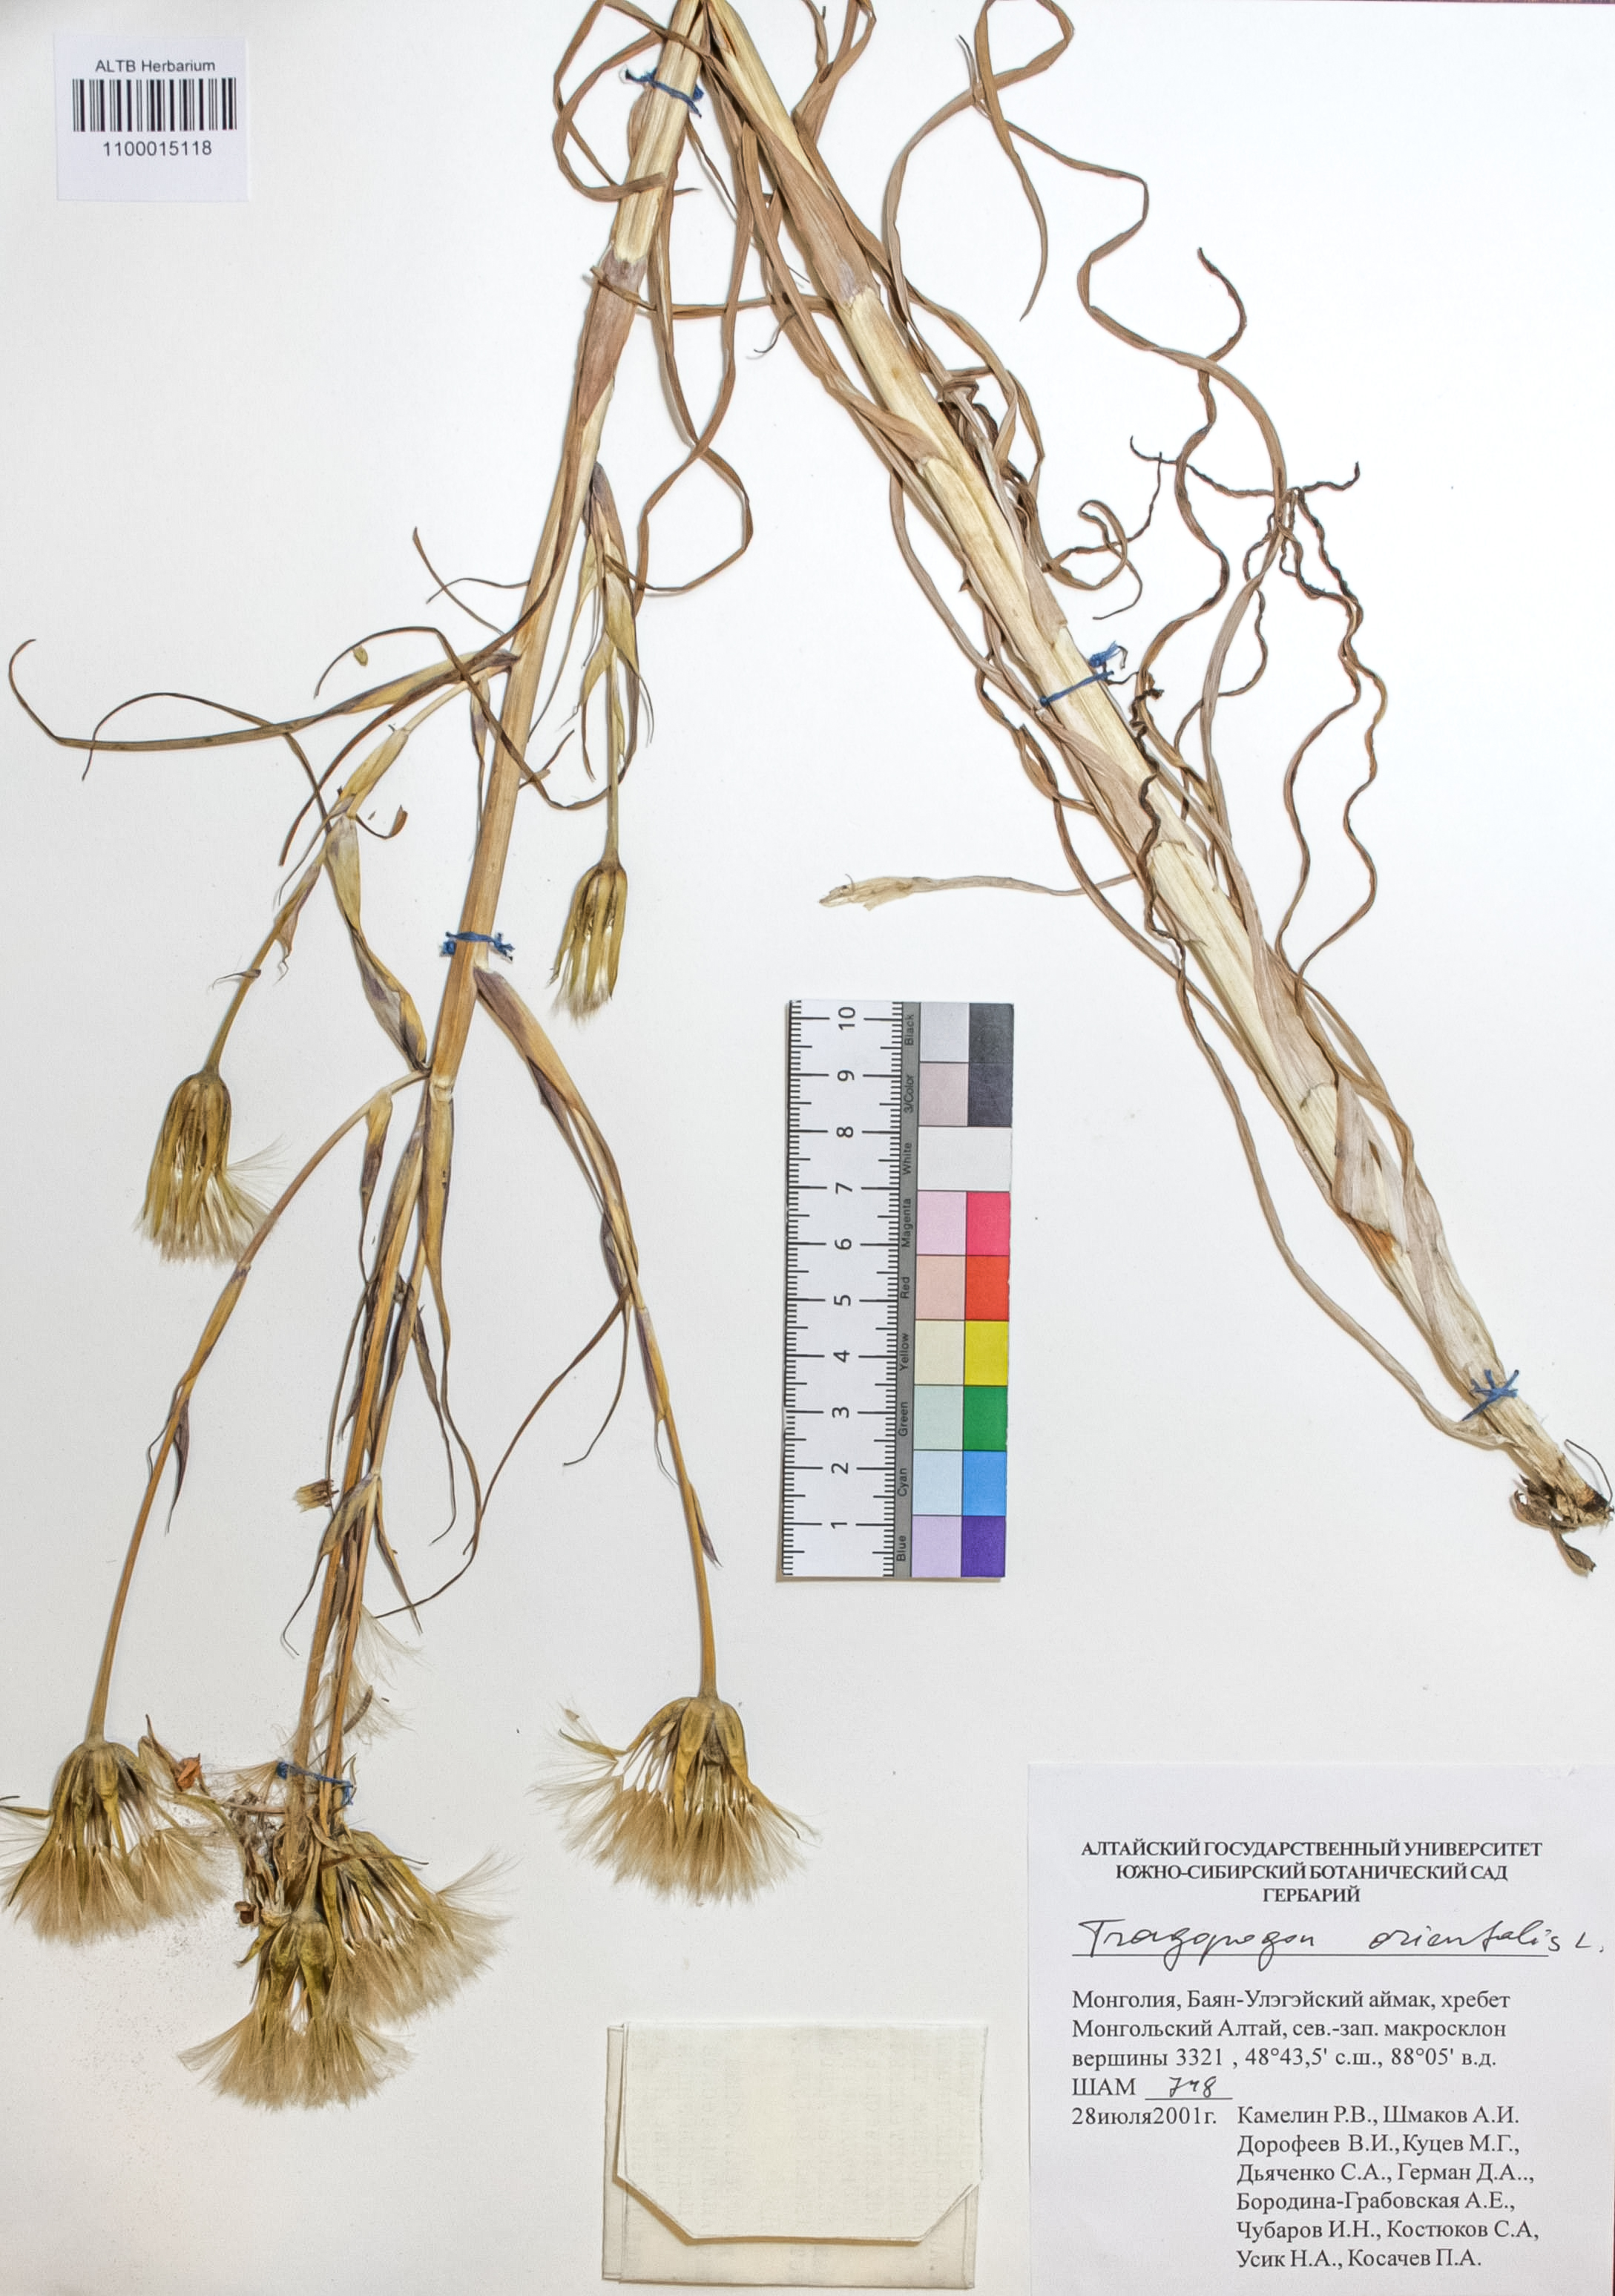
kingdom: Plantae
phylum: Tracheophyta
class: Magnoliopsida
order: Asterales
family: Asteraceae
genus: Tragopogon
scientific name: Tragopogon orientalis
